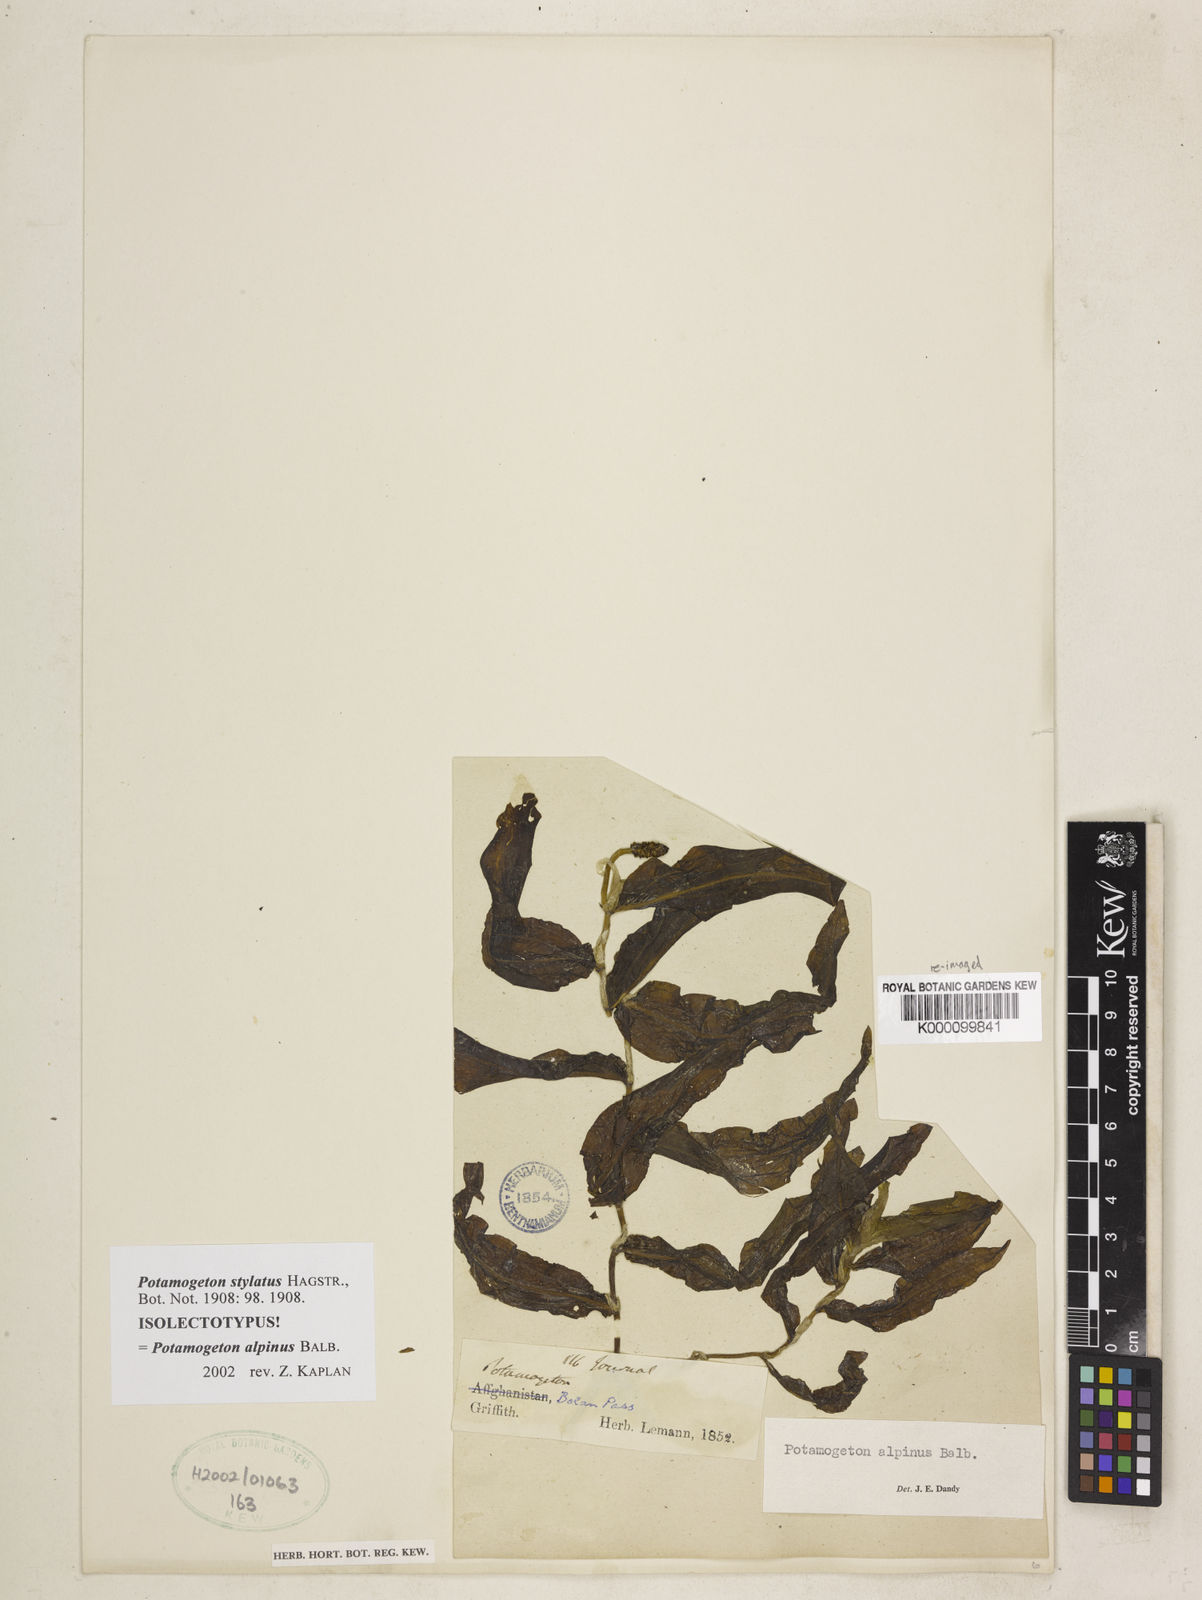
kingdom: Plantae
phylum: Tracheophyta
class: Liliopsida
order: Alismatales
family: Potamogetonaceae
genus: Potamogeton
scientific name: Potamogeton alpinus
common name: Red pondweed
